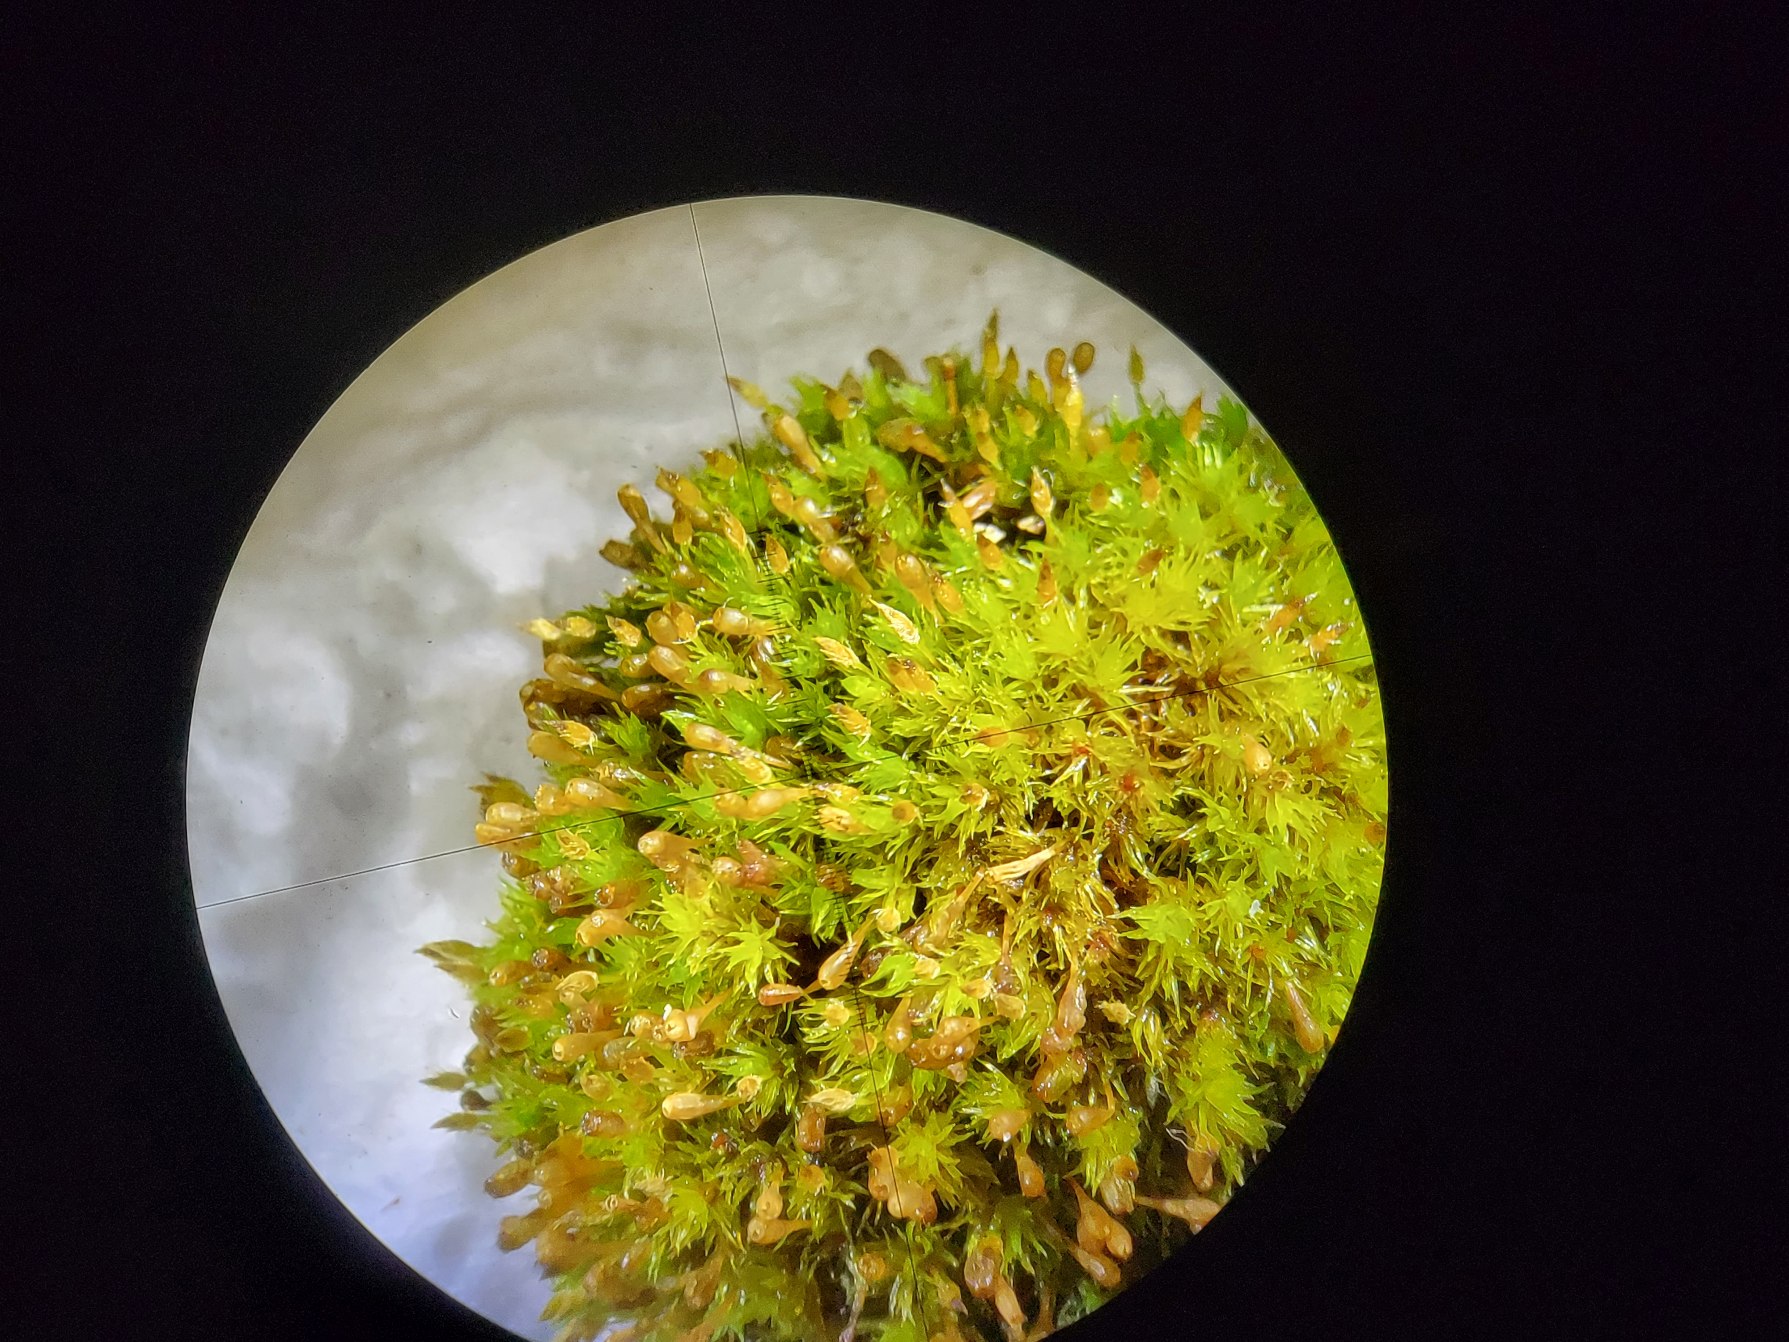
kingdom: Plantae
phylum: Bryophyta
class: Bryopsida
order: Orthotrichales
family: Orthotrichaceae
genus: Ulota
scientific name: Ulota crispula
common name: Krøllet låddenhætte
